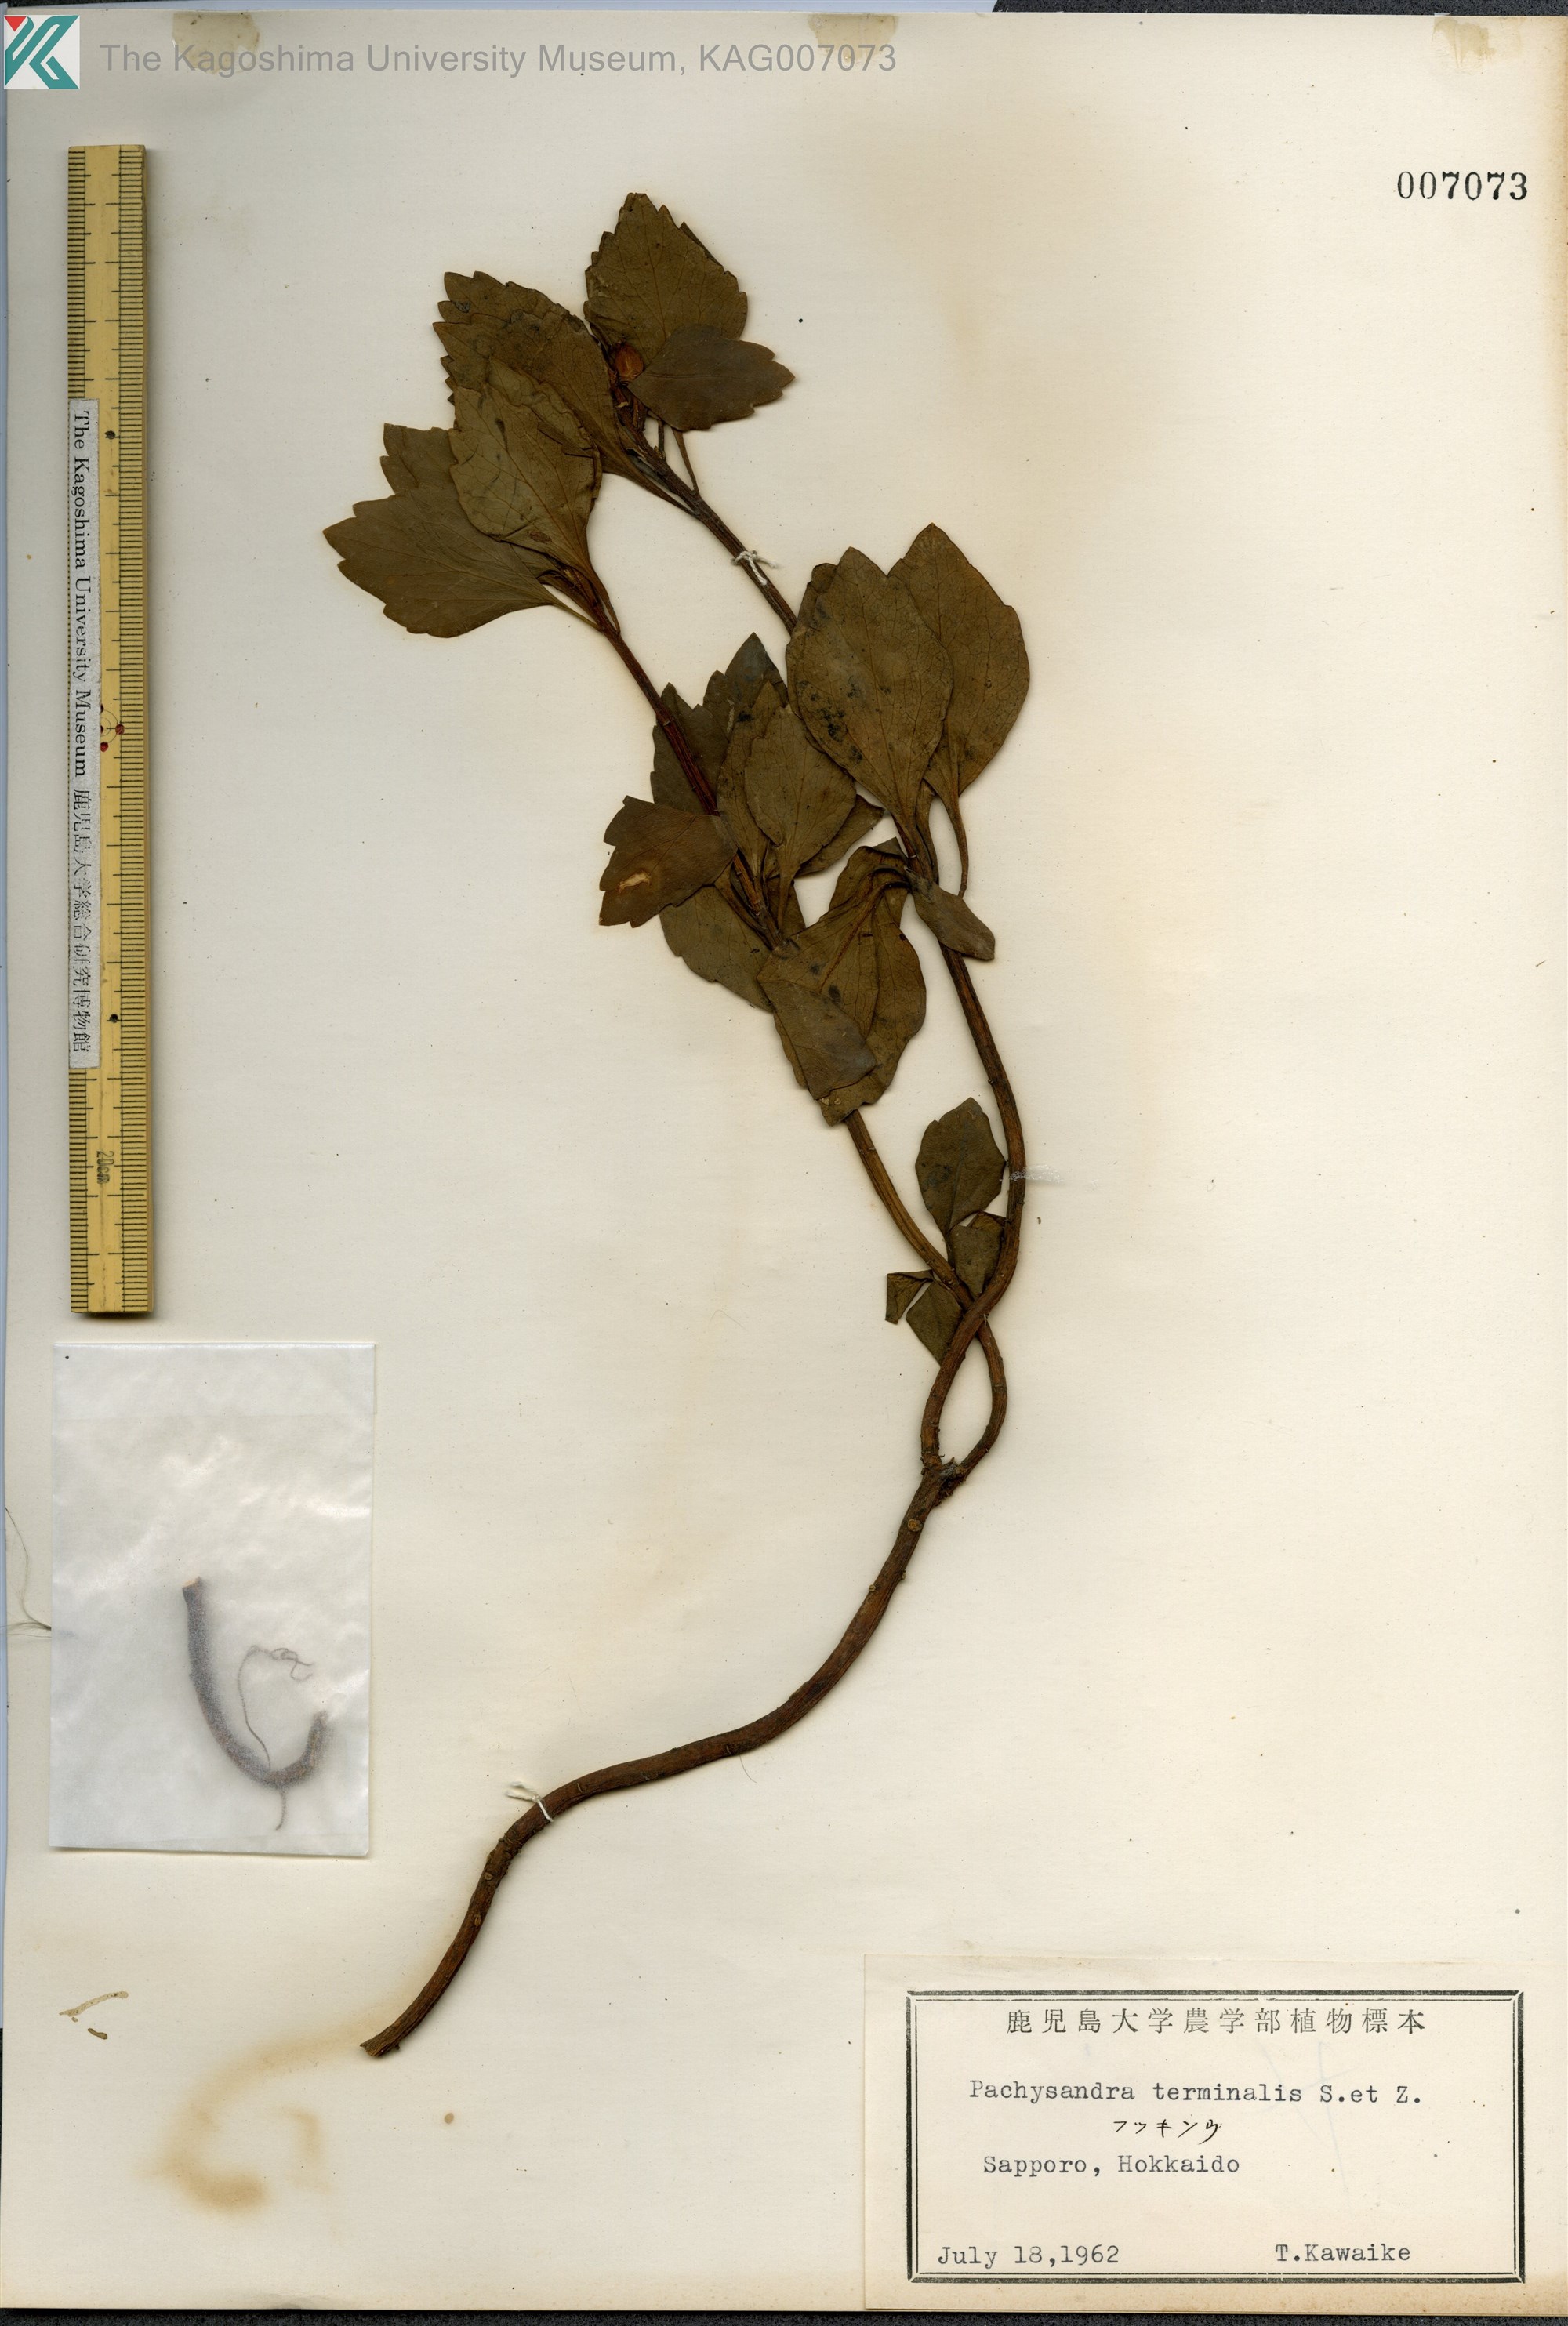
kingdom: Plantae
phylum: Tracheophyta
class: Magnoliopsida
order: Buxales
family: Buxaceae
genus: Pachysandra
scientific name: Pachysandra terminalis
